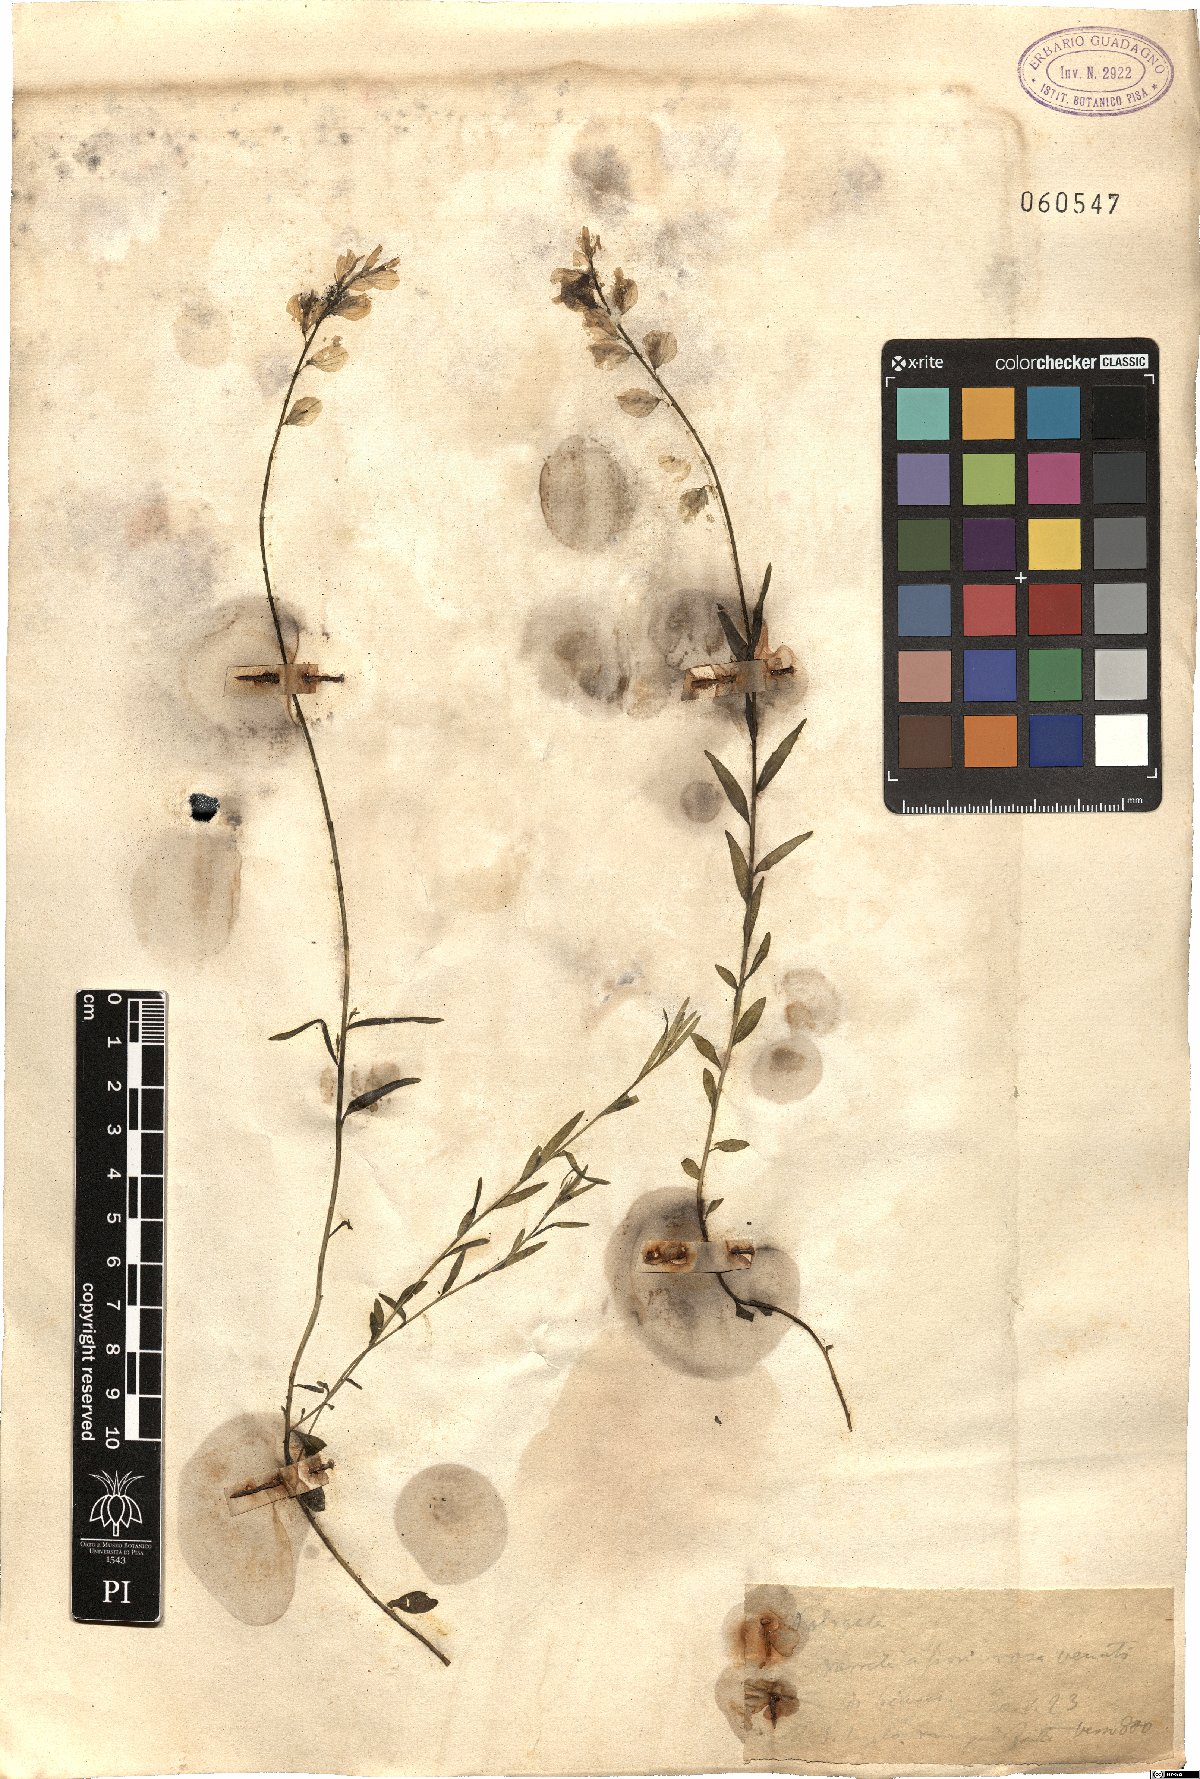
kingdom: Plantae
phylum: Tracheophyta
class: Magnoliopsida
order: Fabales
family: Polygalaceae
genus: Polygala
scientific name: Polygala
